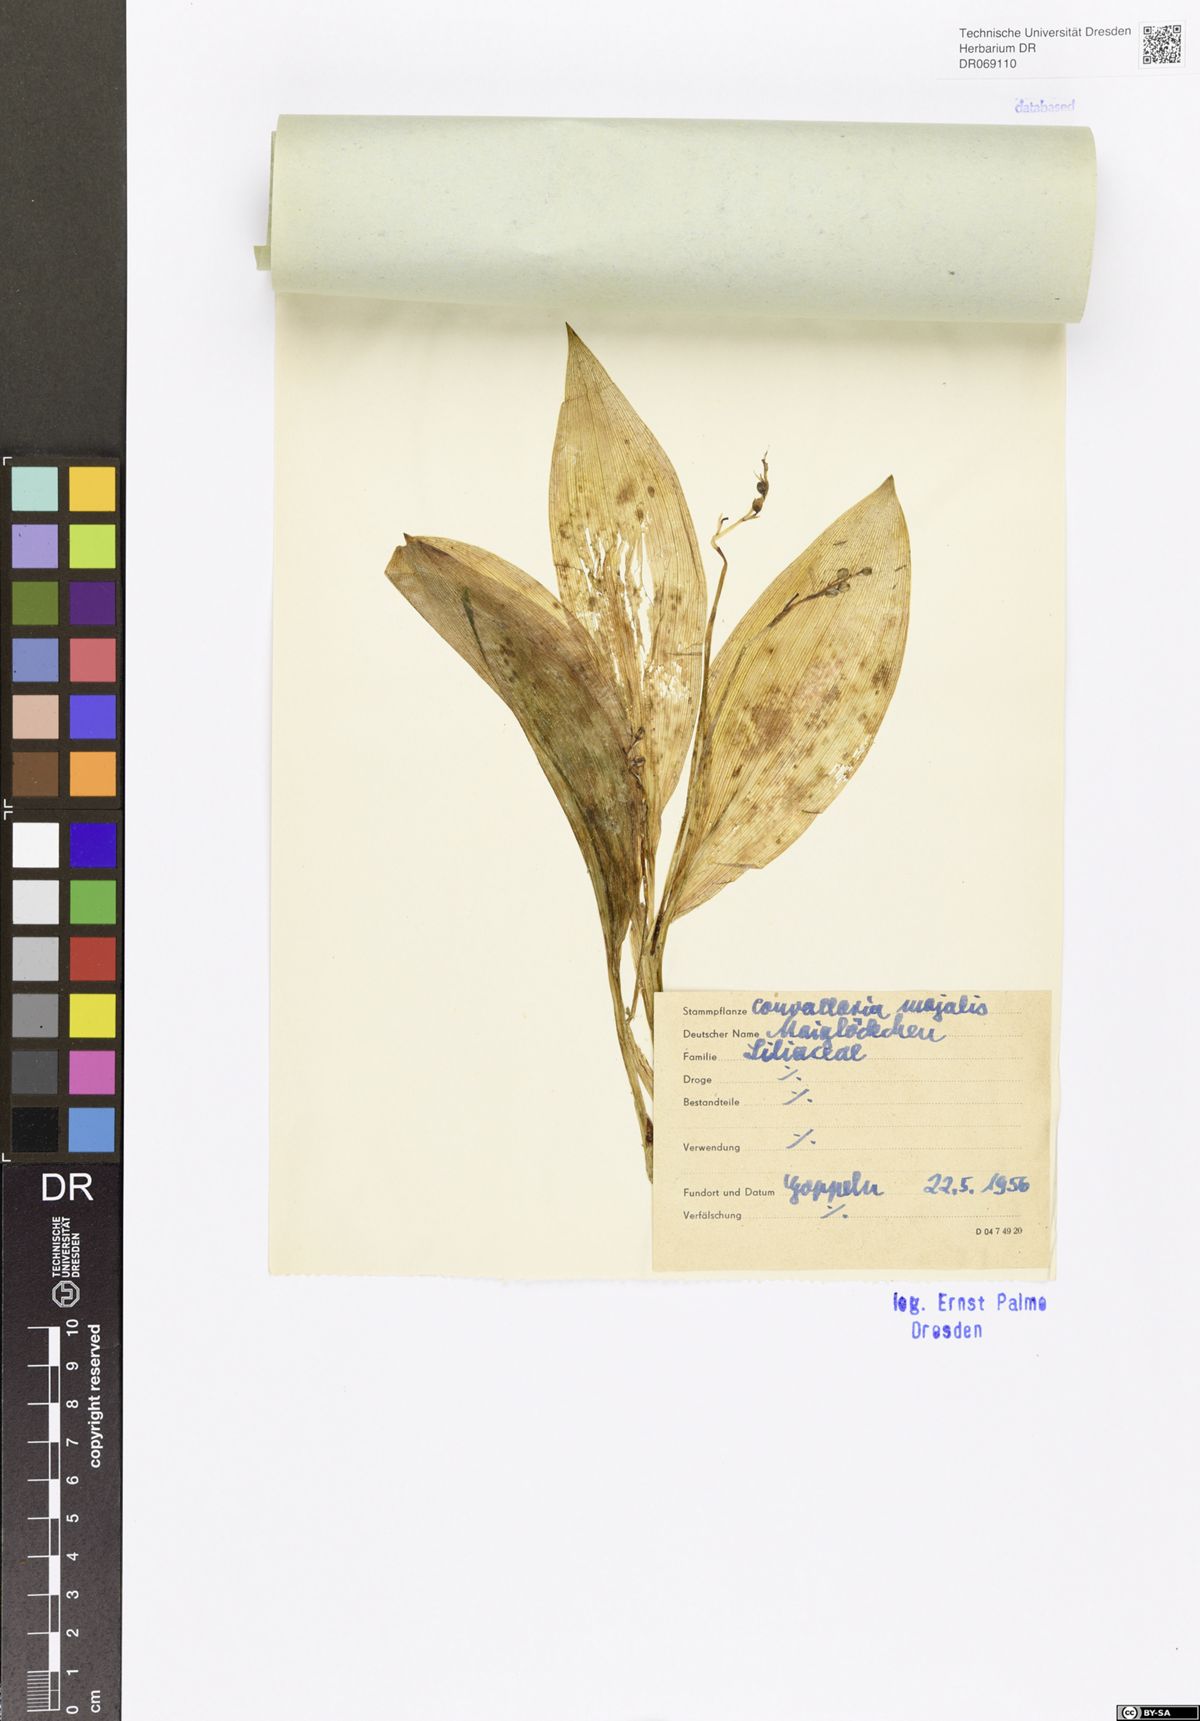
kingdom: Plantae
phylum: Tracheophyta
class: Liliopsida
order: Asparagales
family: Asparagaceae
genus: Convallaria
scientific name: Convallaria majalis
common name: Lily-of-the-valley
